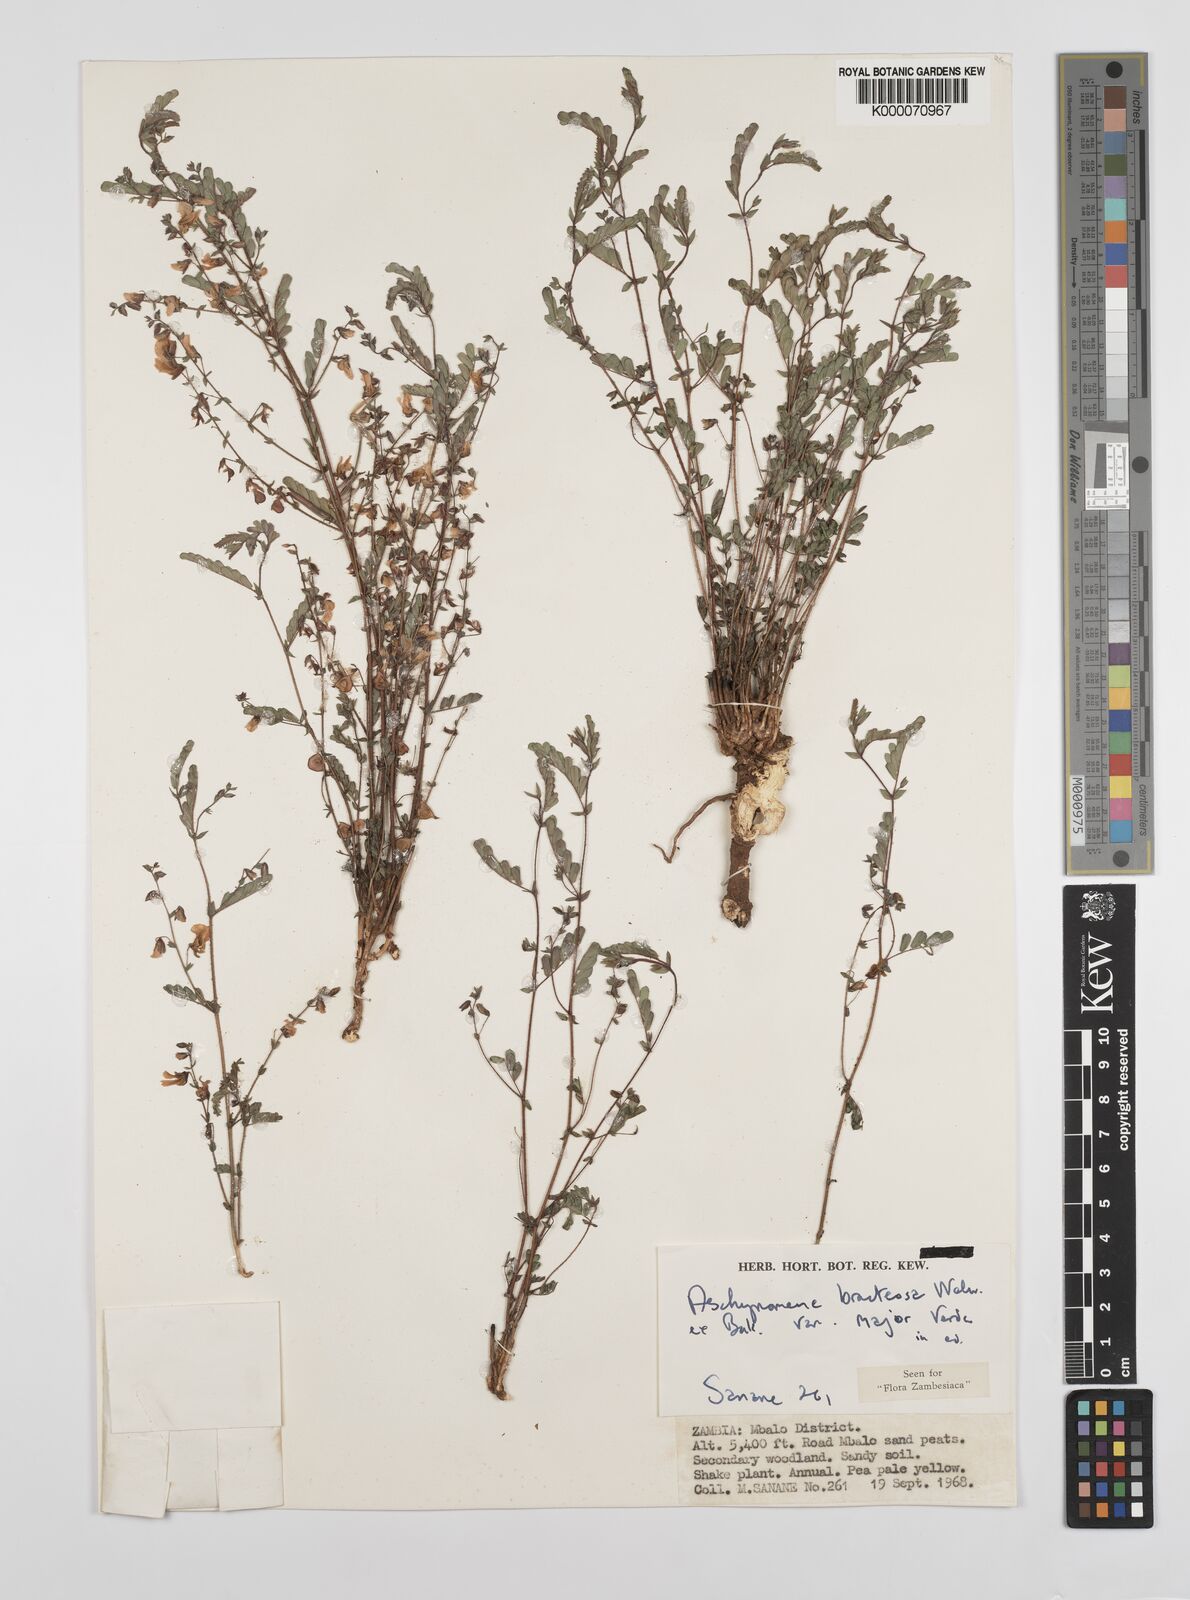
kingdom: Plantae
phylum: Tracheophyta
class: Magnoliopsida
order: Fabales
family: Fabaceae
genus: Aeschynomene
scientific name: Aeschynomene bracteosa
